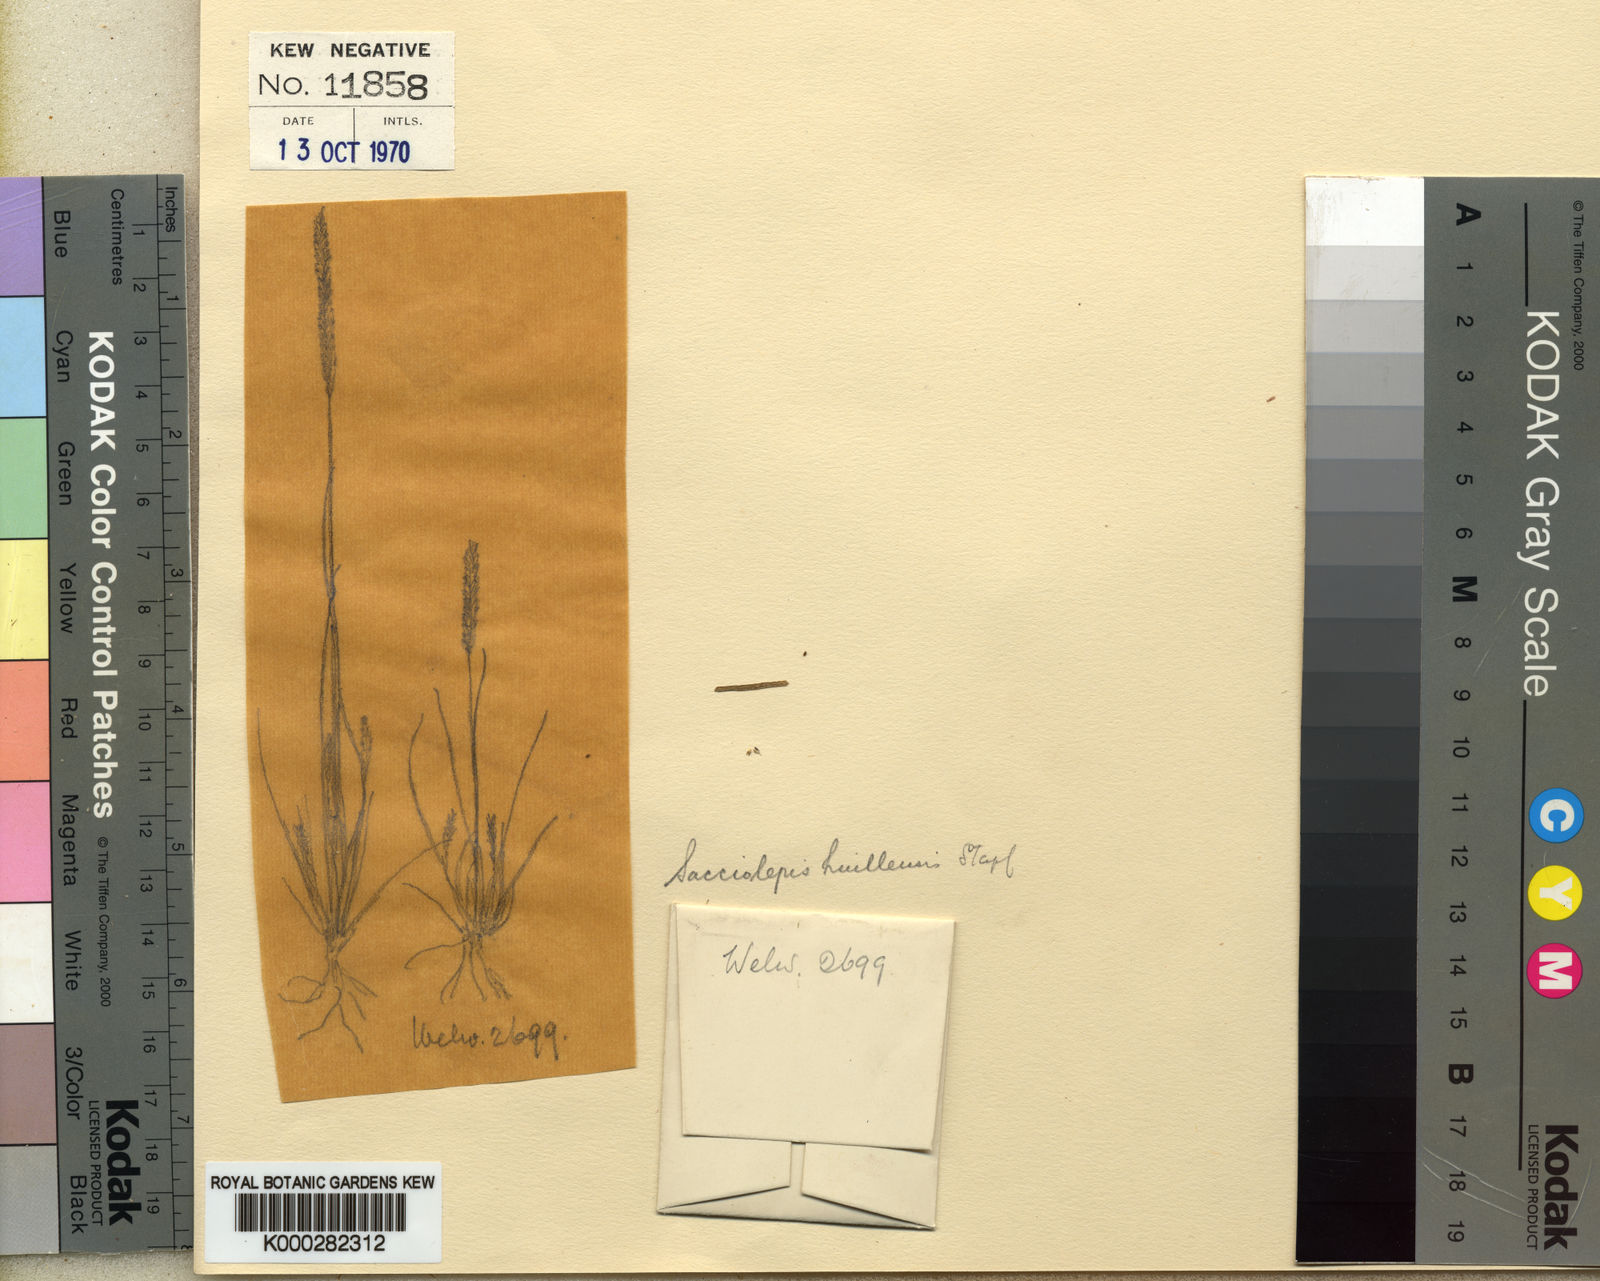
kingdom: Plantae
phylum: Tracheophyta
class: Liliopsida
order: Poales
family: Poaceae
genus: Sacciolepis
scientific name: Sacciolepis myosuroides
